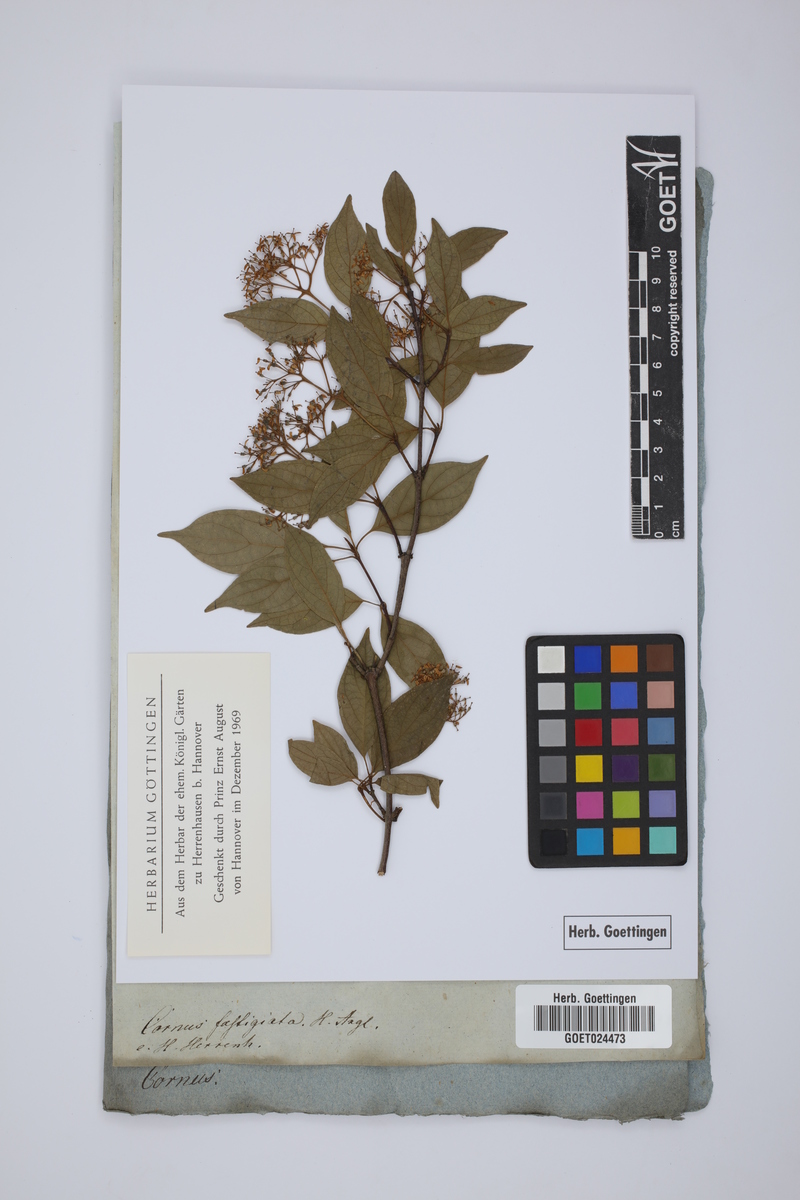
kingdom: Plantae
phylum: Tracheophyta
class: Magnoliopsida
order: Cornales
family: Cornaceae
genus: Cornus
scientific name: Cornus foemina
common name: Swamp dogwood
